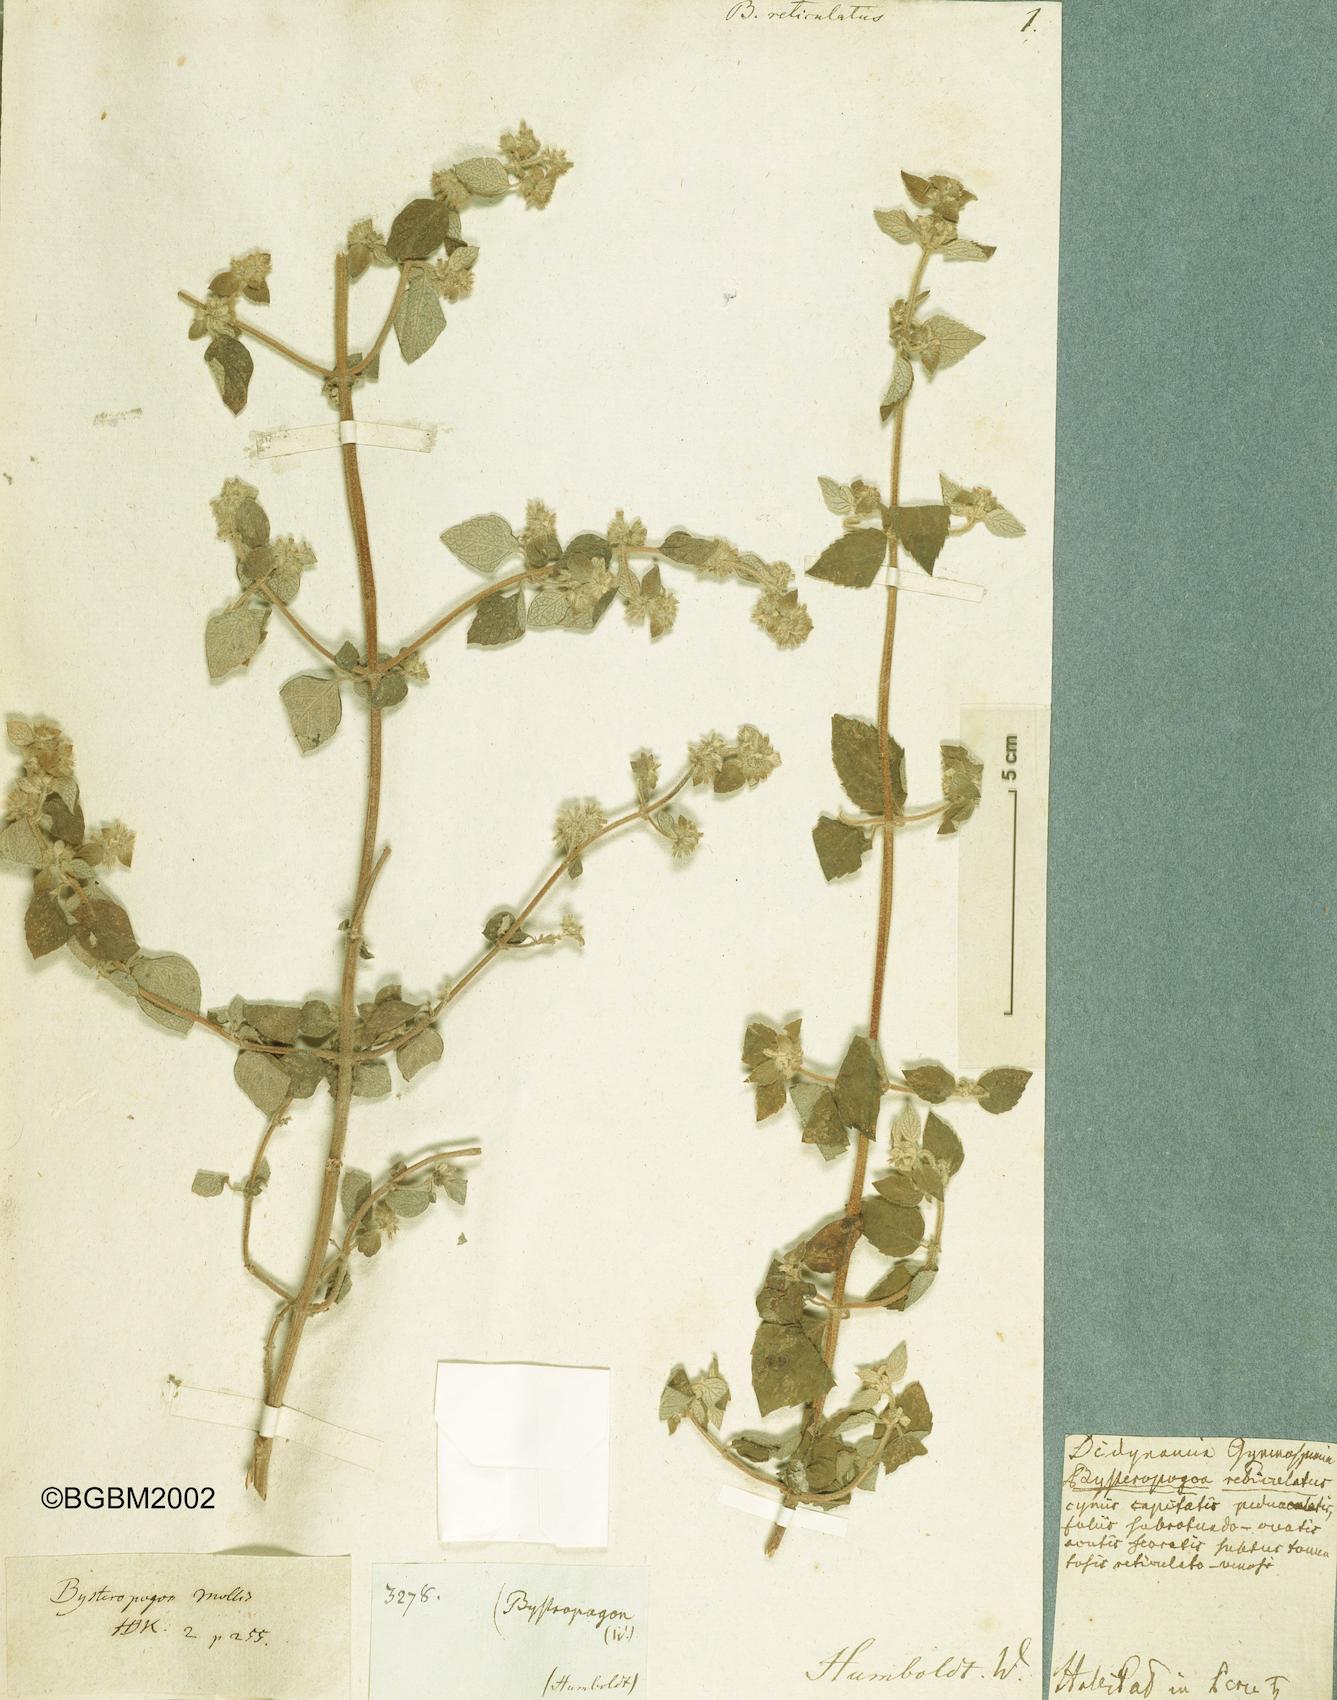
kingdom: Plantae
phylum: Tracheophyta
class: Magnoliopsida
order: Lamiales
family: Lamiaceae
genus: Minthostachys
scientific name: Minthostachys mollis
